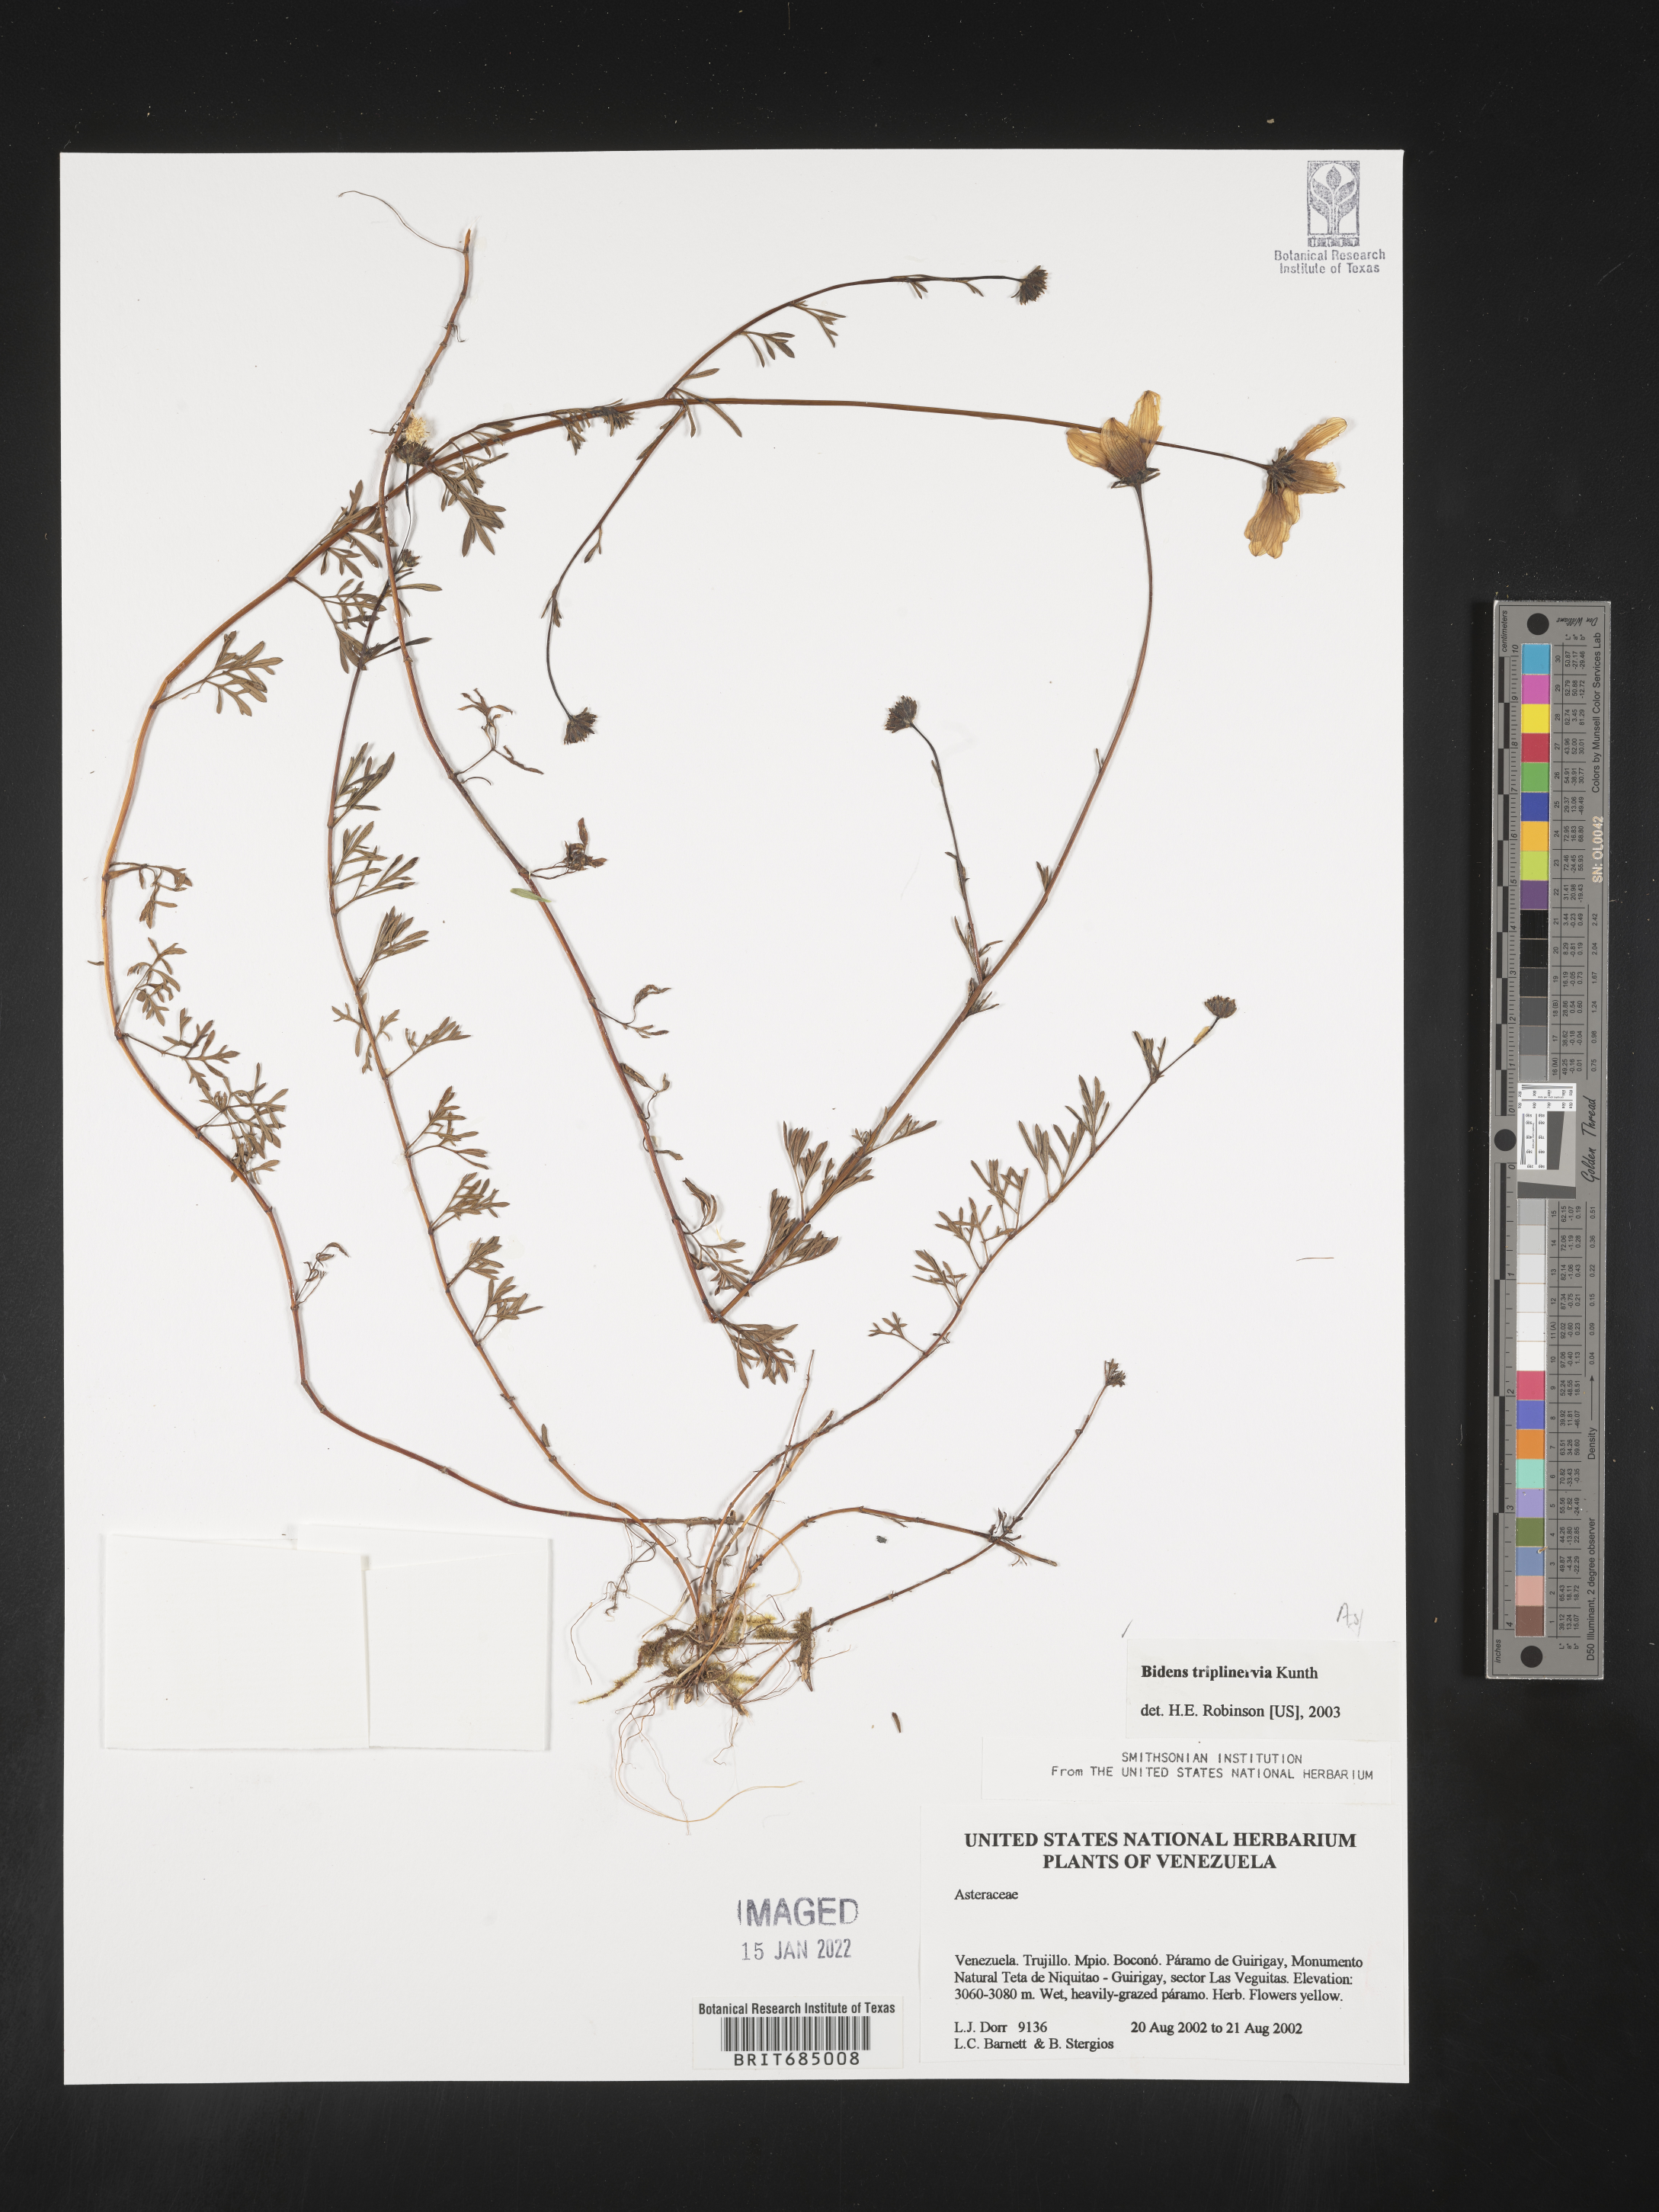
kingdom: Plantae
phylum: Tracheophyta
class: Magnoliopsida
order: Asterales
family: Asteraceae
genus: Bidens
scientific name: Bidens rubifolia
